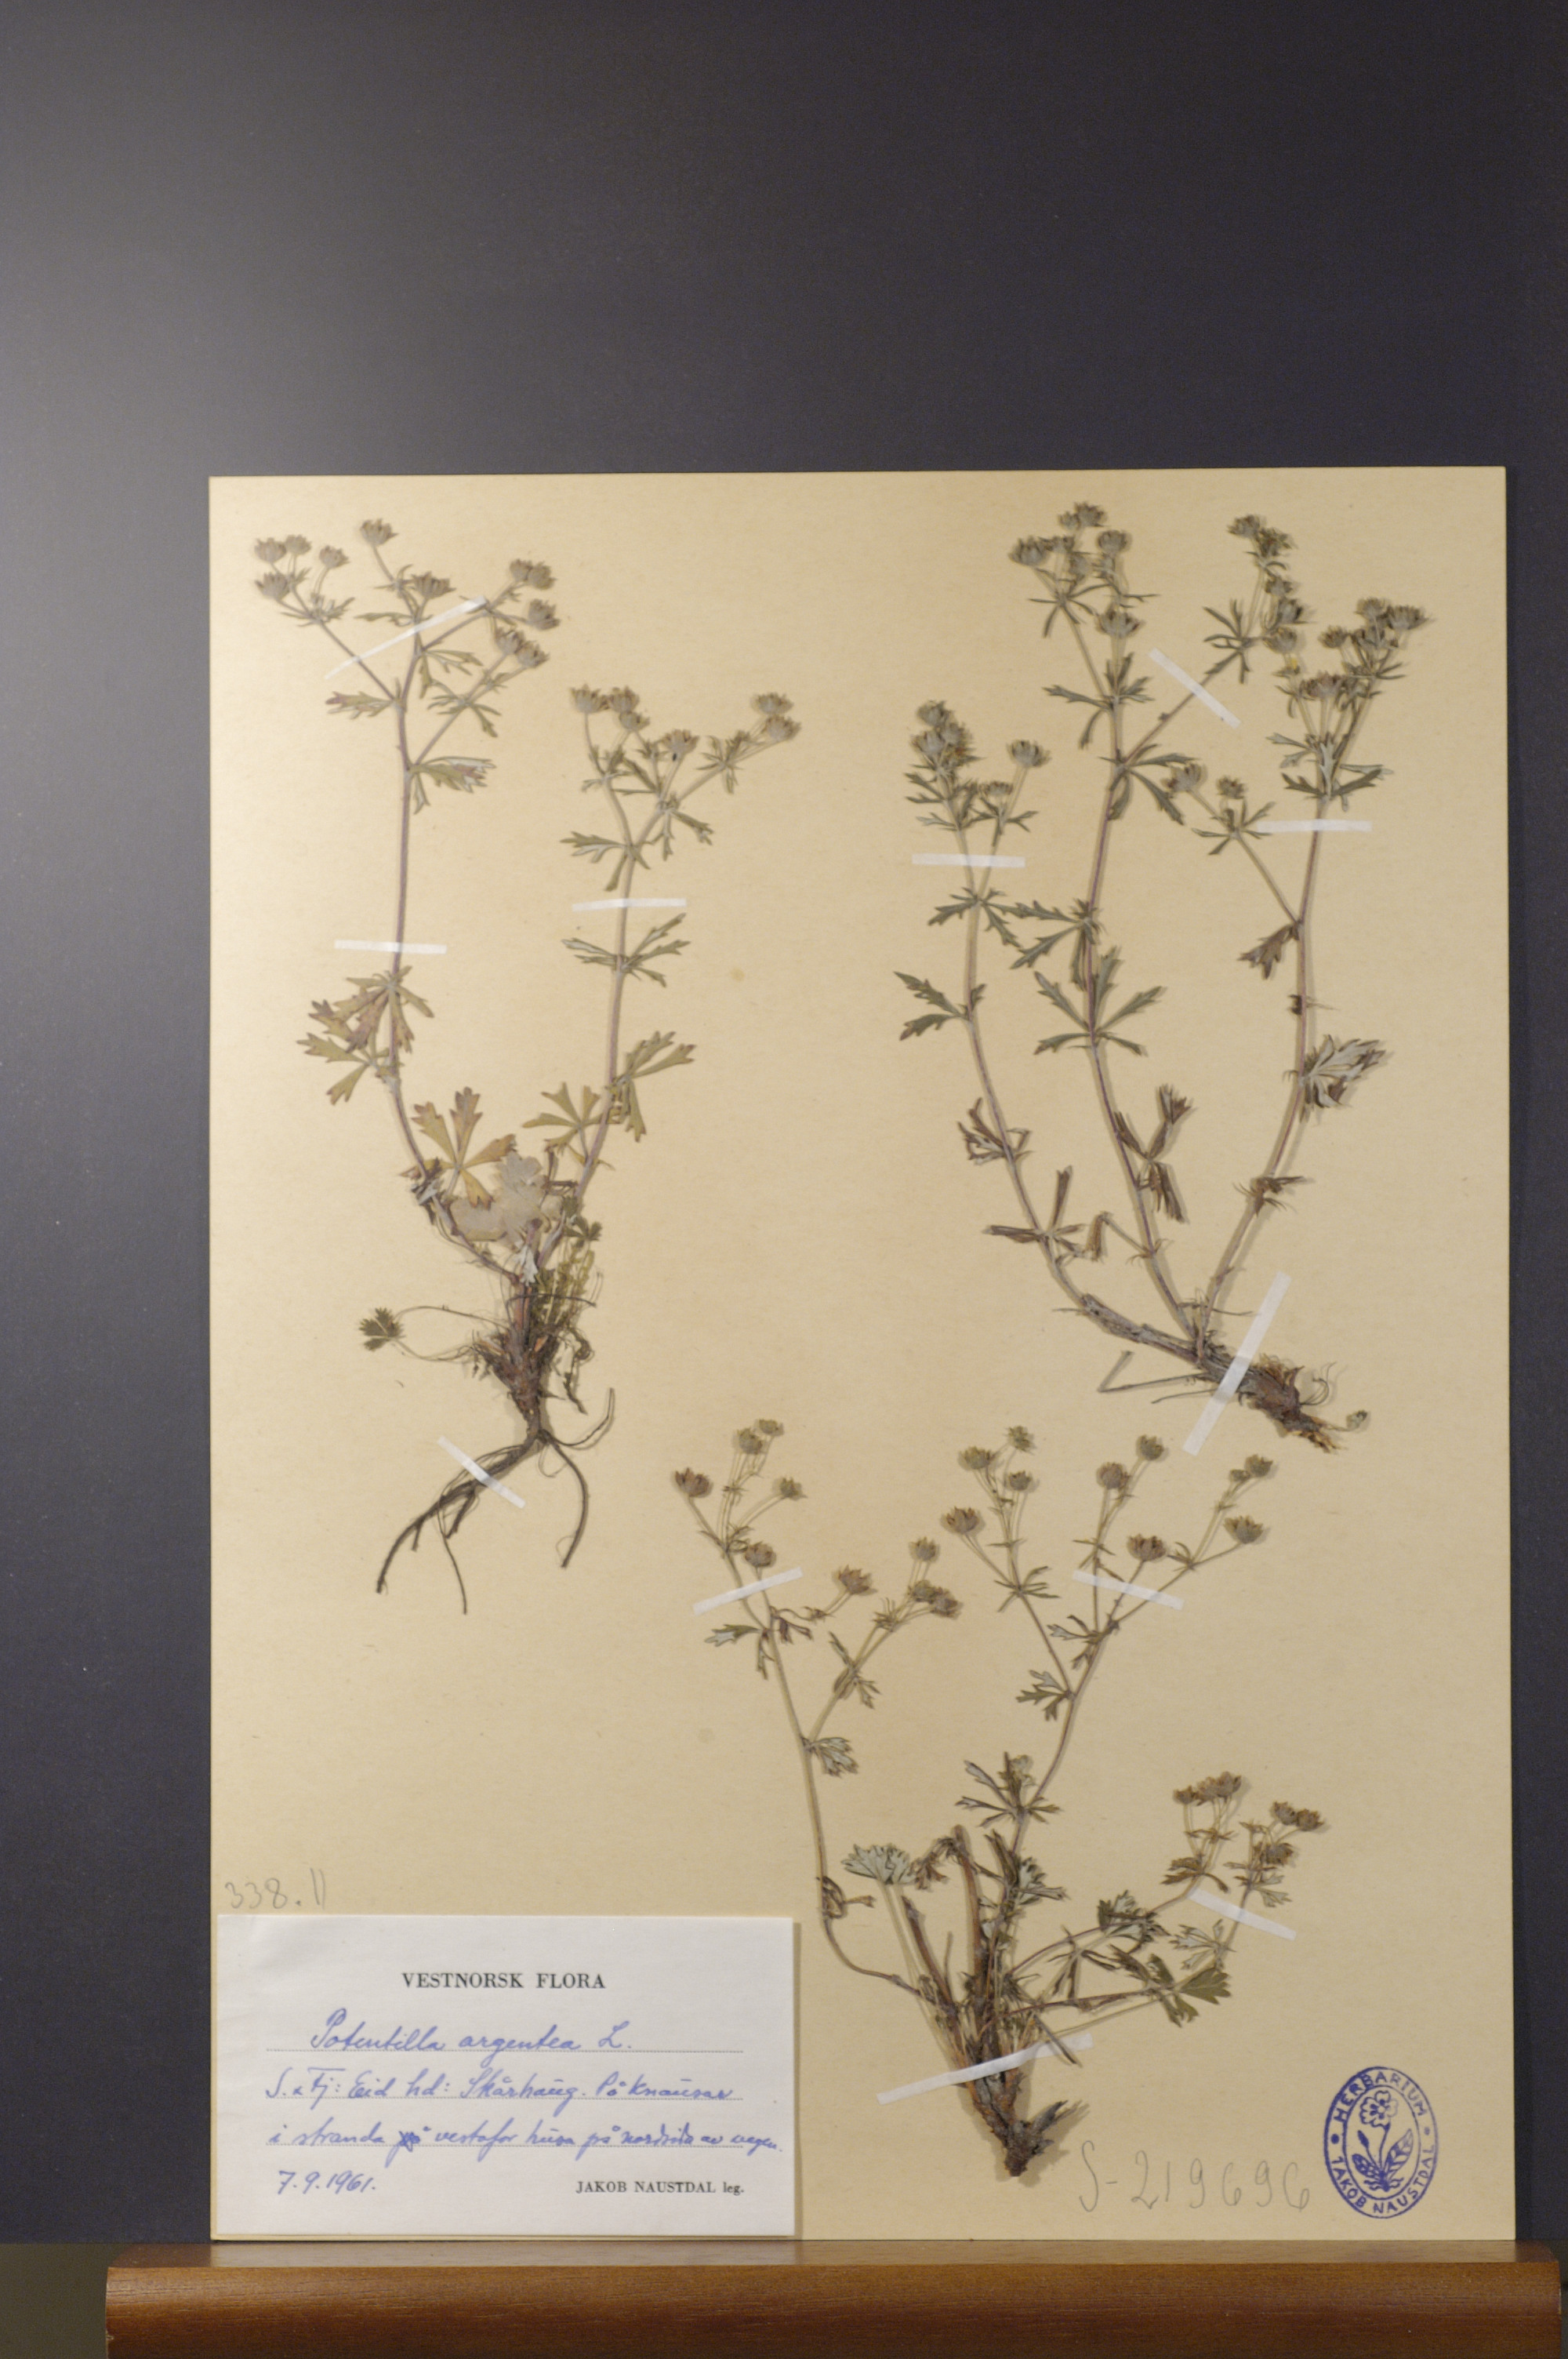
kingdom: Plantae
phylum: Tracheophyta
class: Magnoliopsida
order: Rosales
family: Rosaceae
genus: Potentilla
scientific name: Potentilla argentea
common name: Hoary cinquefoil
